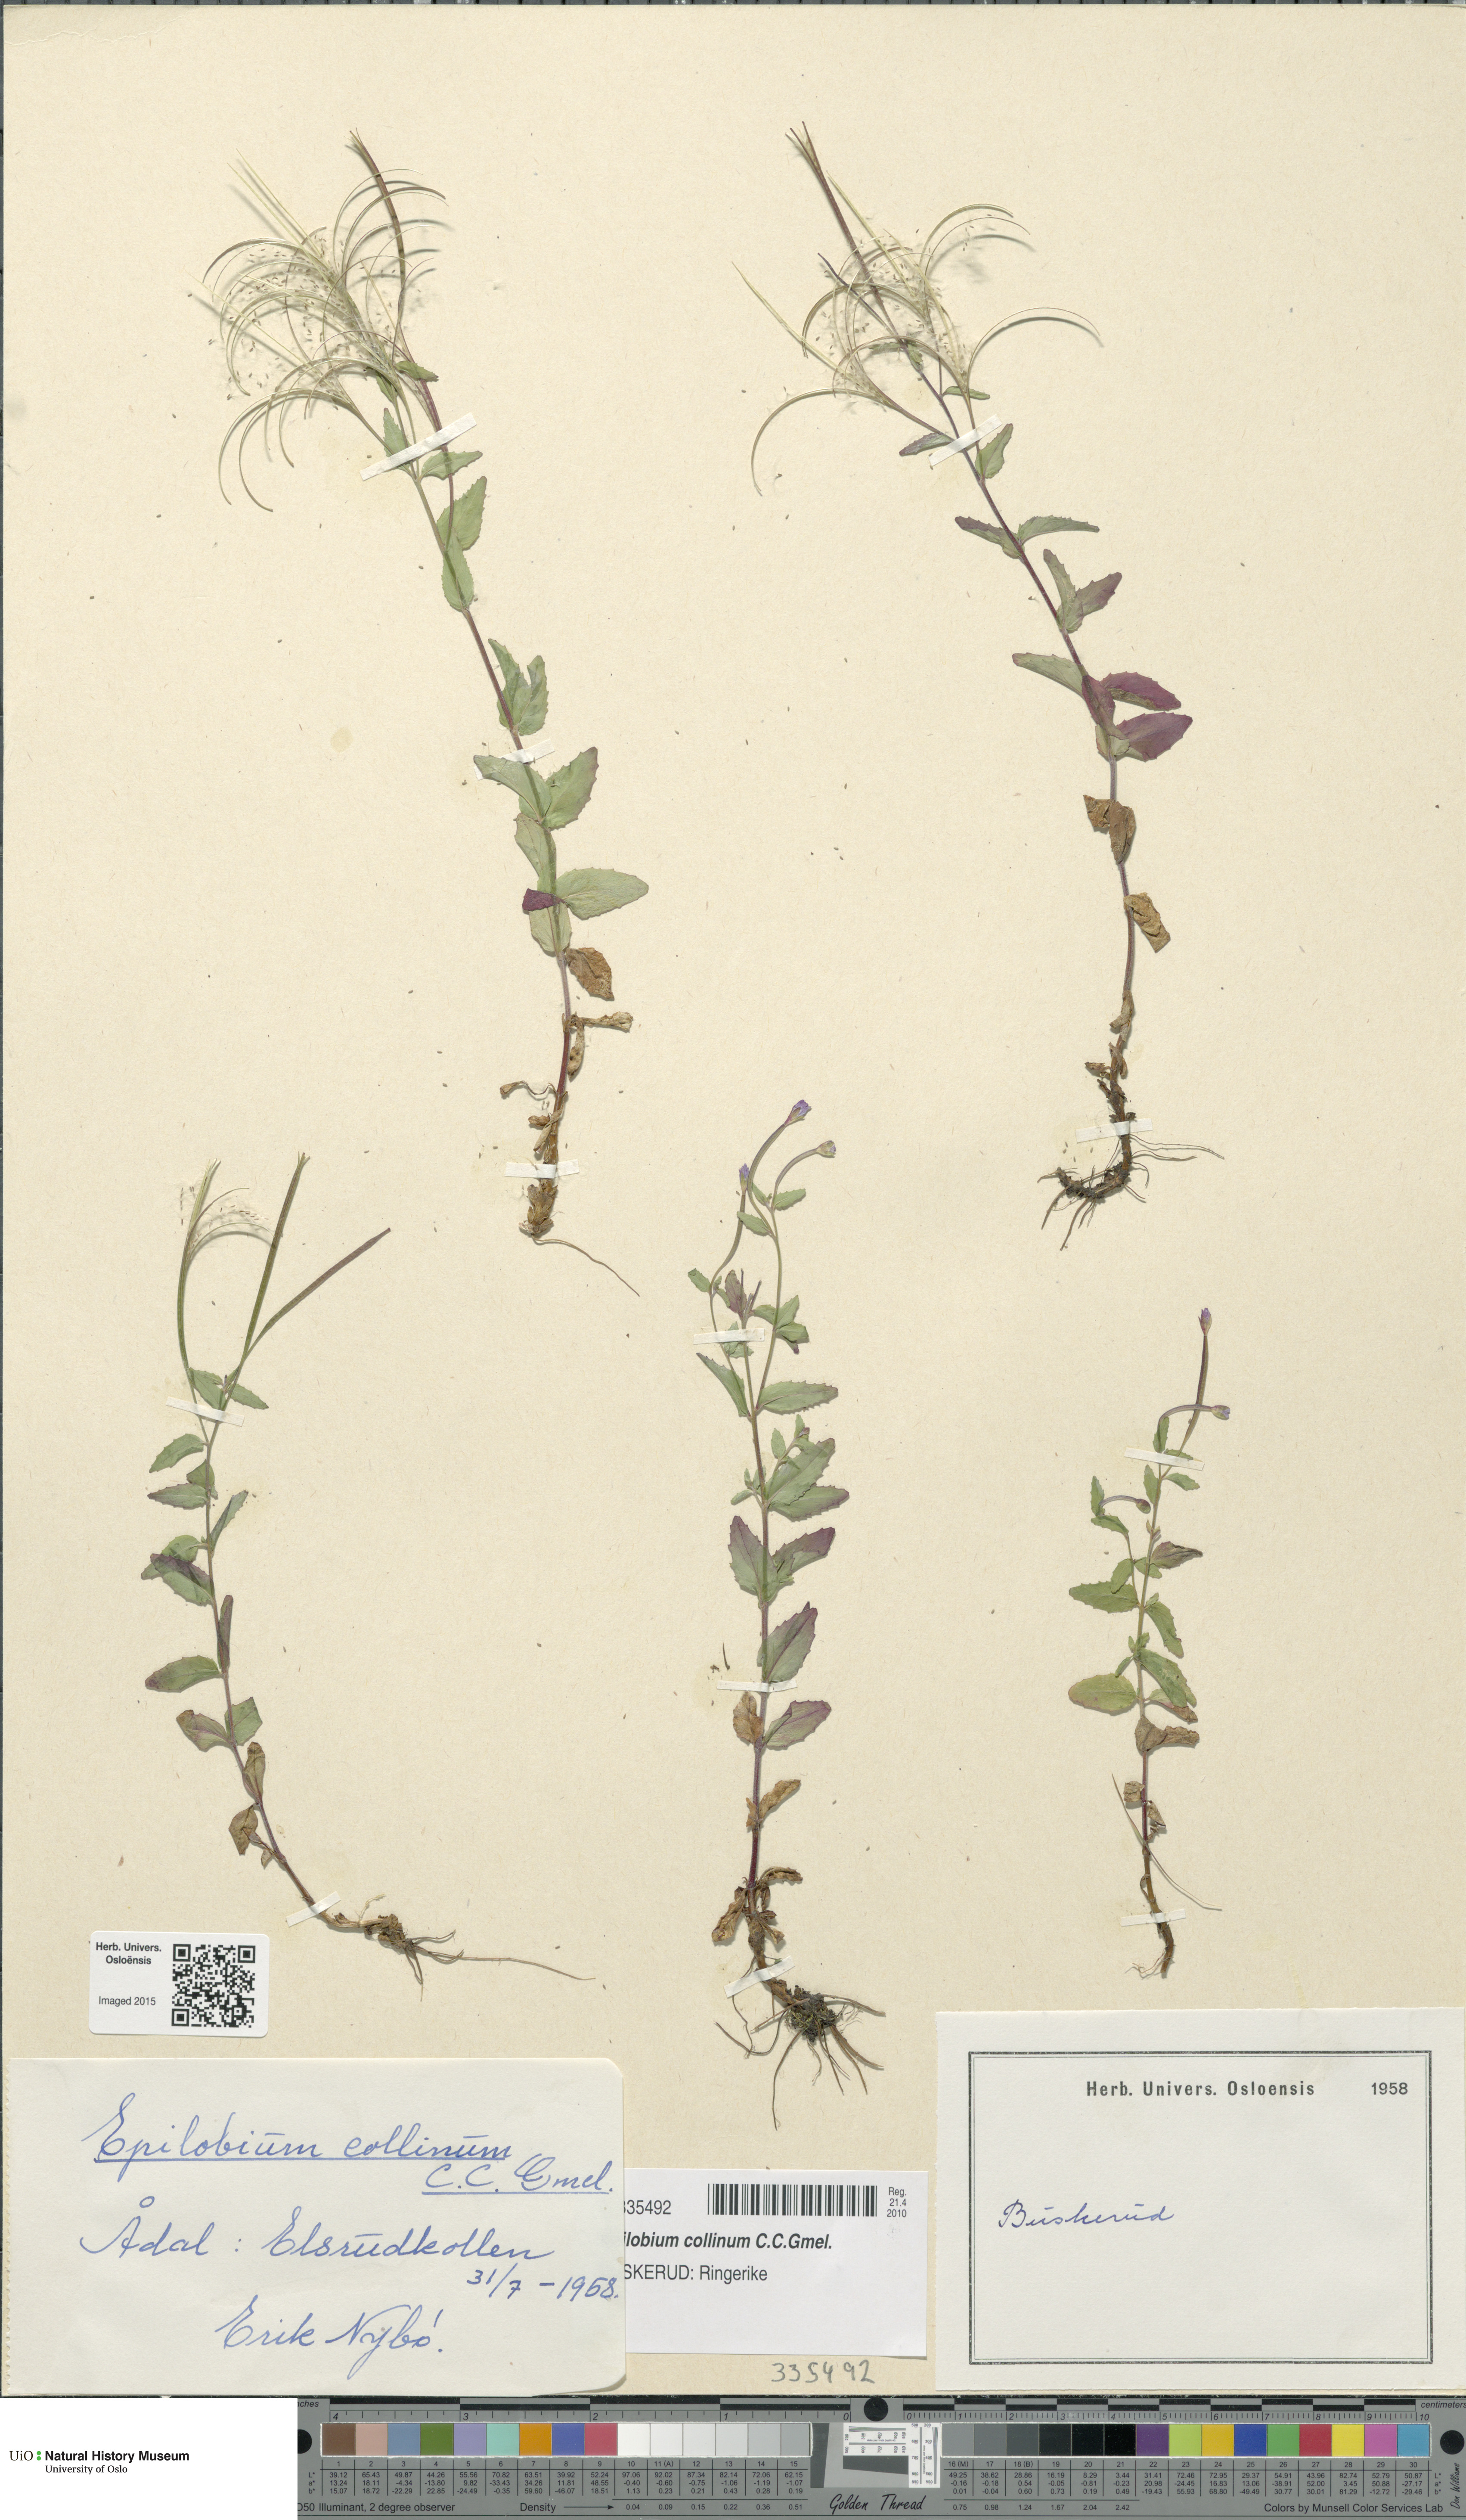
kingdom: Plantae
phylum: Tracheophyta
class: Magnoliopsida
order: Myrtales
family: Onagraceae
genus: Epilobium
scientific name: Epilobium collinum
